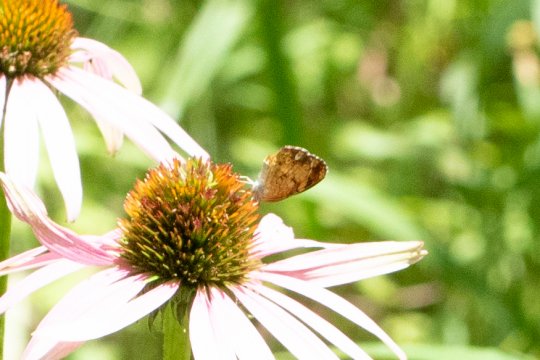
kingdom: Animalia
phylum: Arthropoda
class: Insecta
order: Lepidoptera
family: Nymphalidae
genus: Phyciodes
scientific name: Phyciodes
